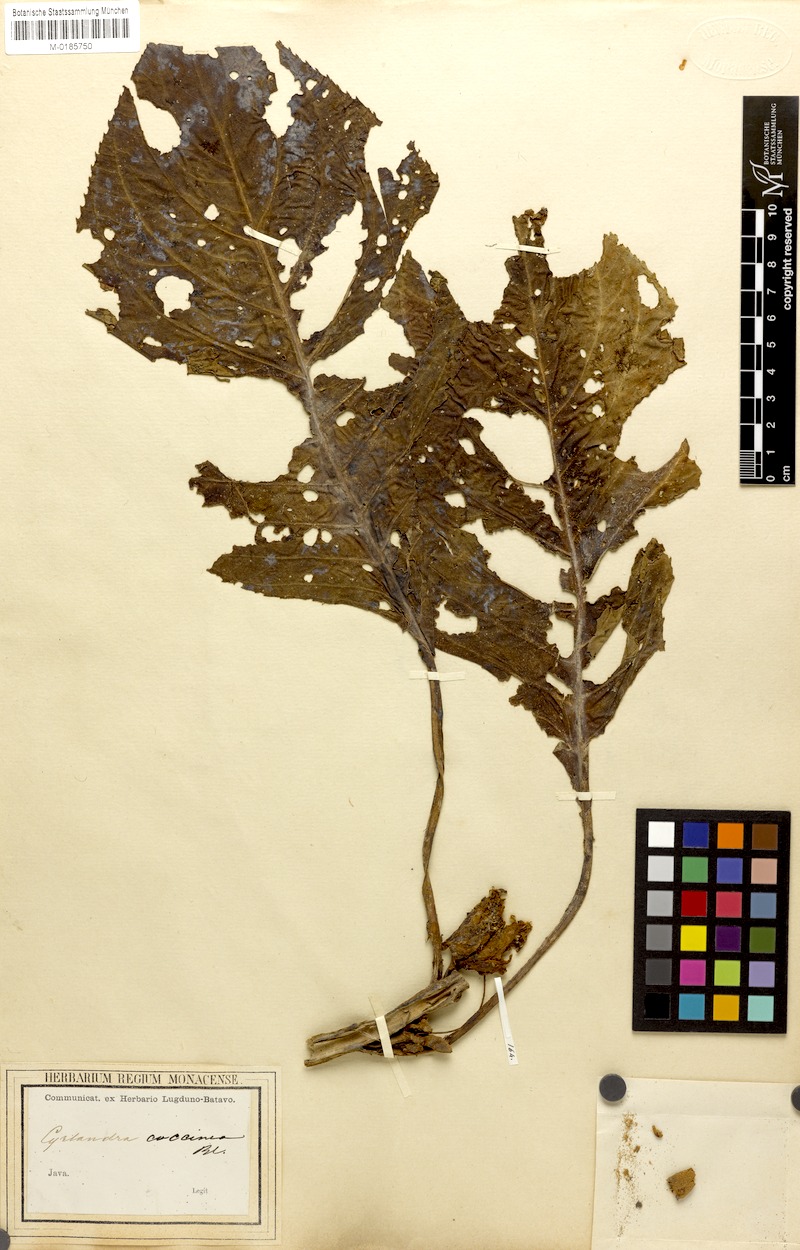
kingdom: Plantae
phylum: Tracheophyta
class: Magnoliopsida
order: Lamiales
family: Gesneriaceae
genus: Cyrtandra
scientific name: Cyrtandra coccinea
